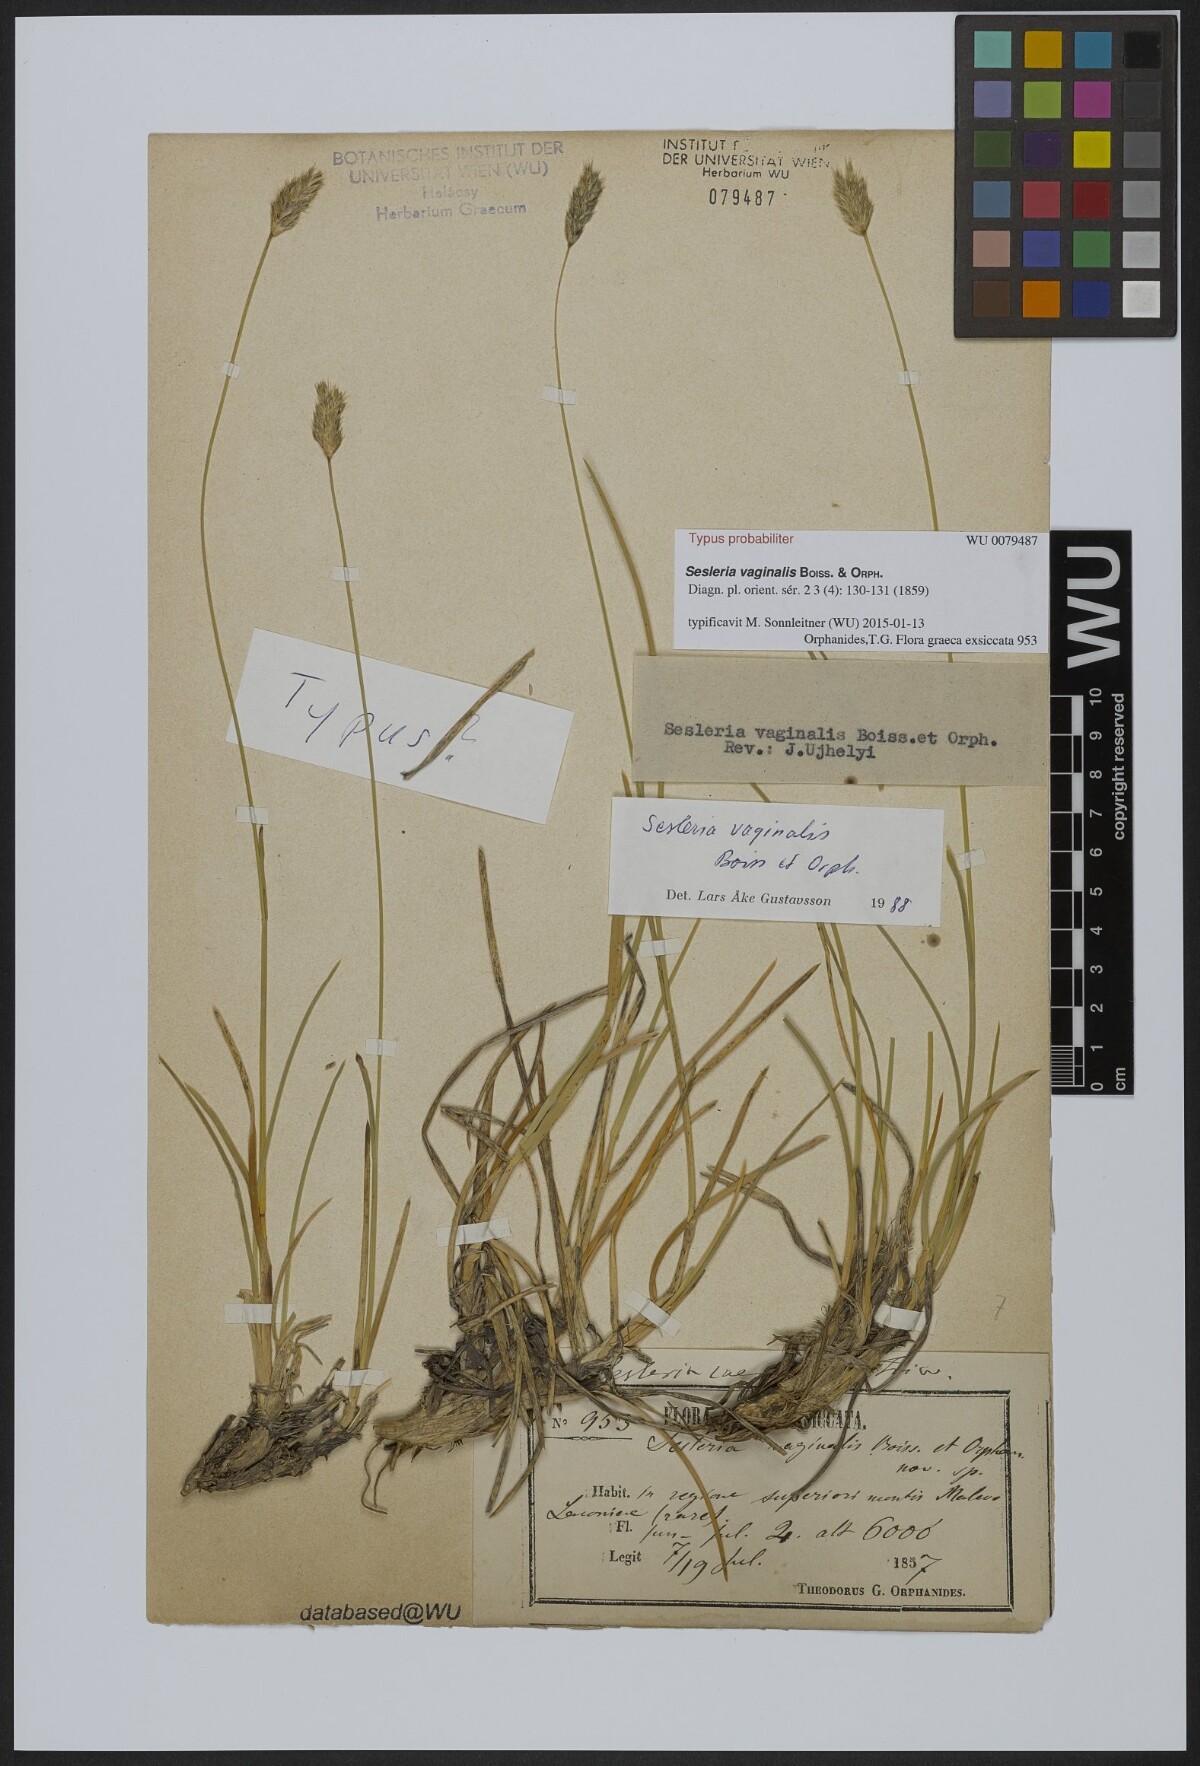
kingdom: Plantae
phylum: Tracheophyta
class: Liliopsida
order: Poales
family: Poaceae
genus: Sesleria
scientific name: Sesleria vaginalis
